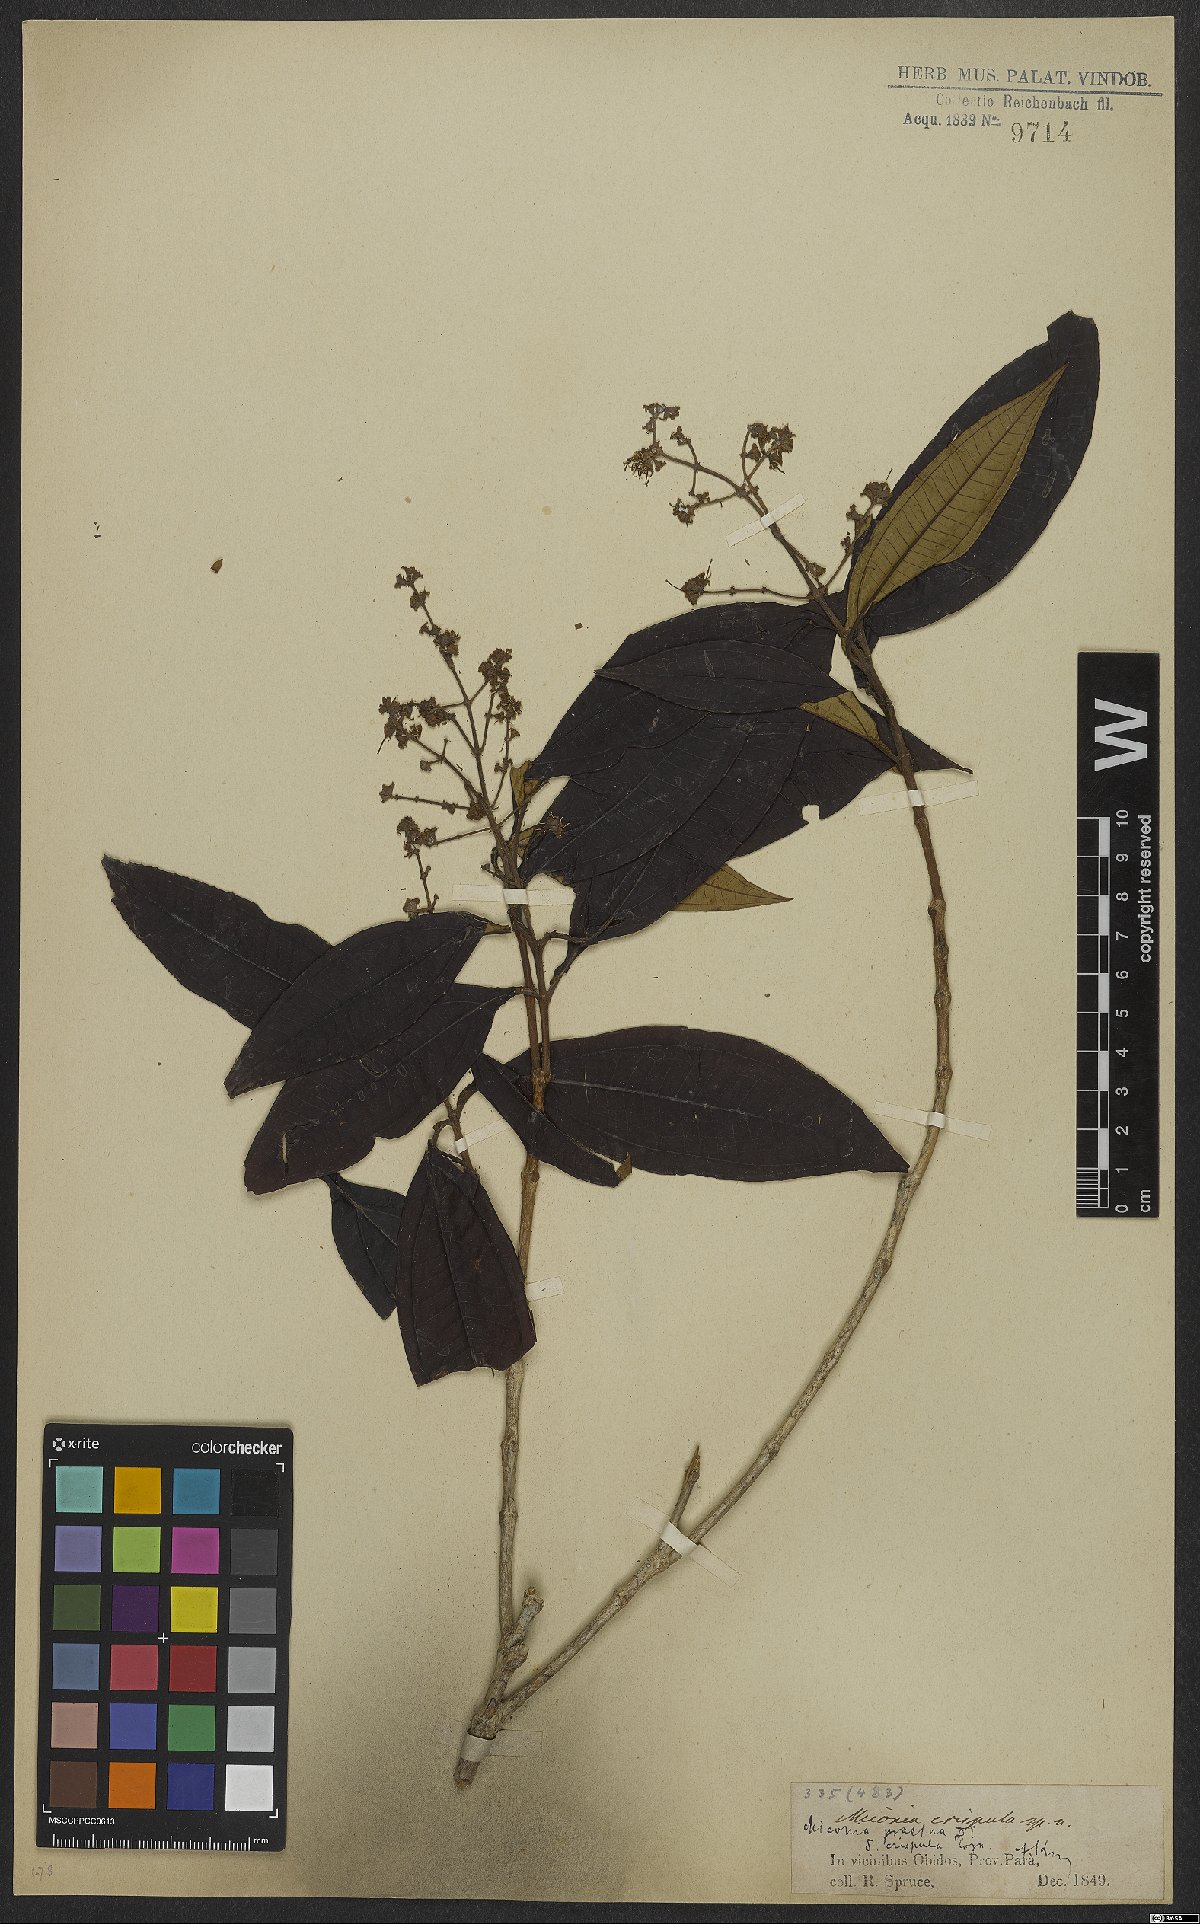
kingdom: Plantae
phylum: Tracheophyta
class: Magnoliopsida
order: Myrtales
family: Melastomataceae
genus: Miconia
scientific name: Miconia prasina
